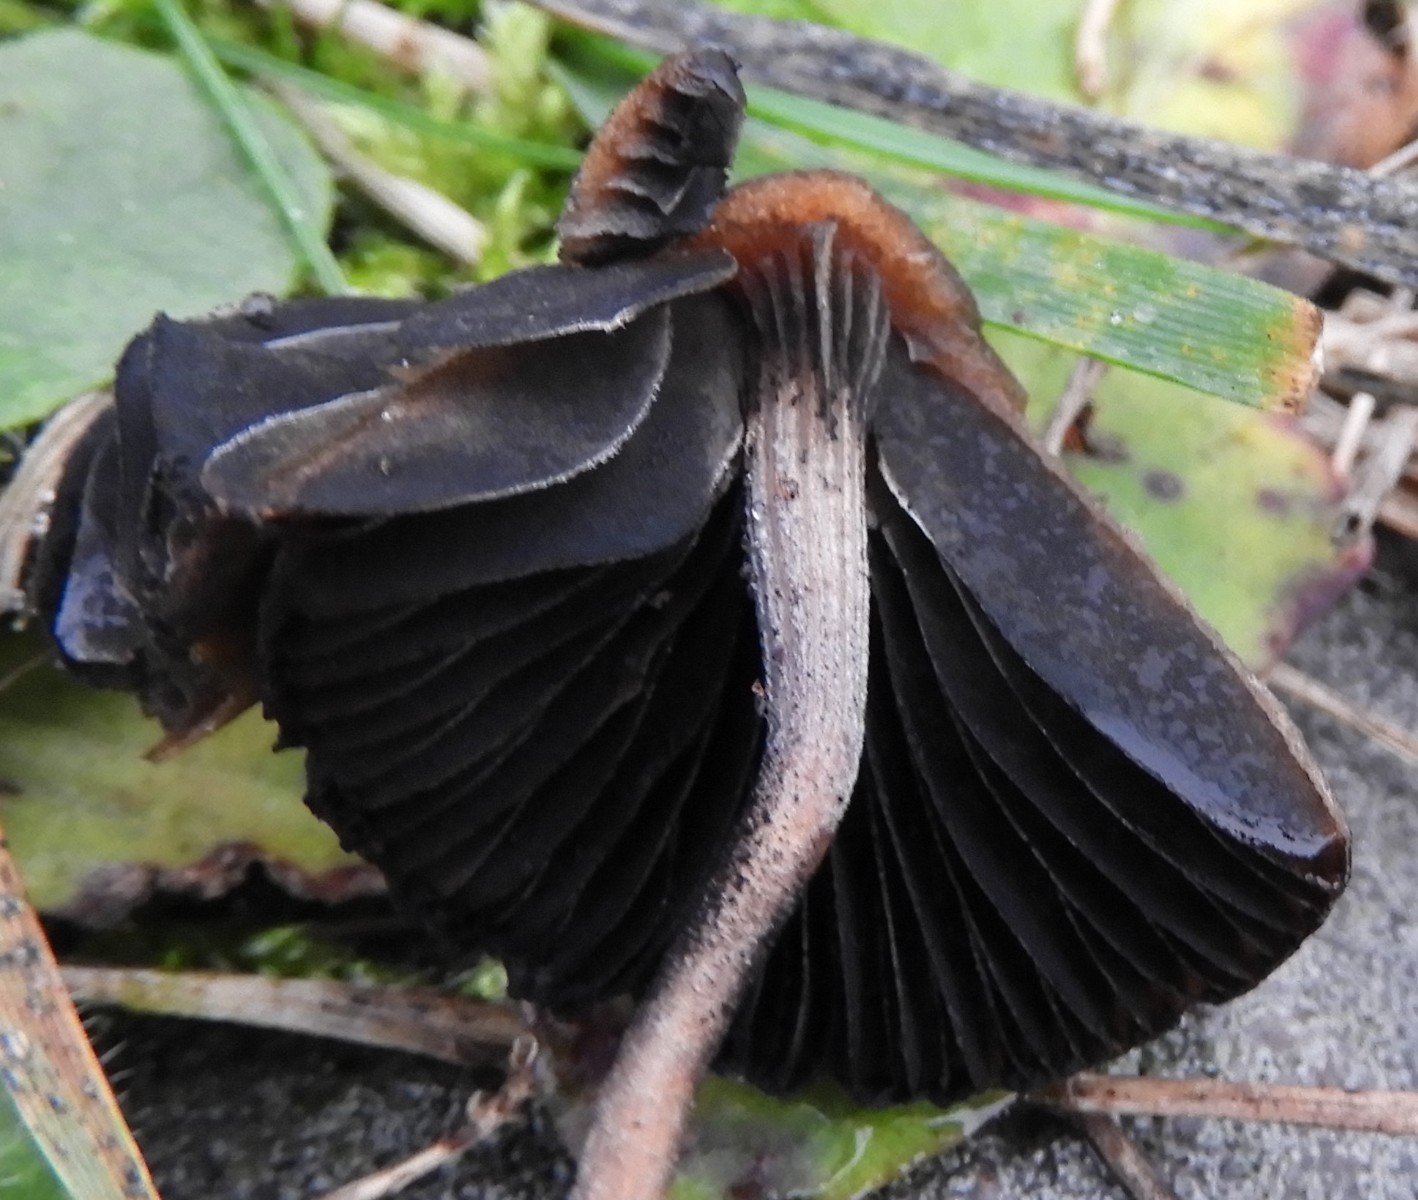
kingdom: Fungi
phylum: Basidiomycota
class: Agaricomycetes
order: Agaricales
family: Bolbitiaceae
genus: Panaeolus
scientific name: Panaeolus
